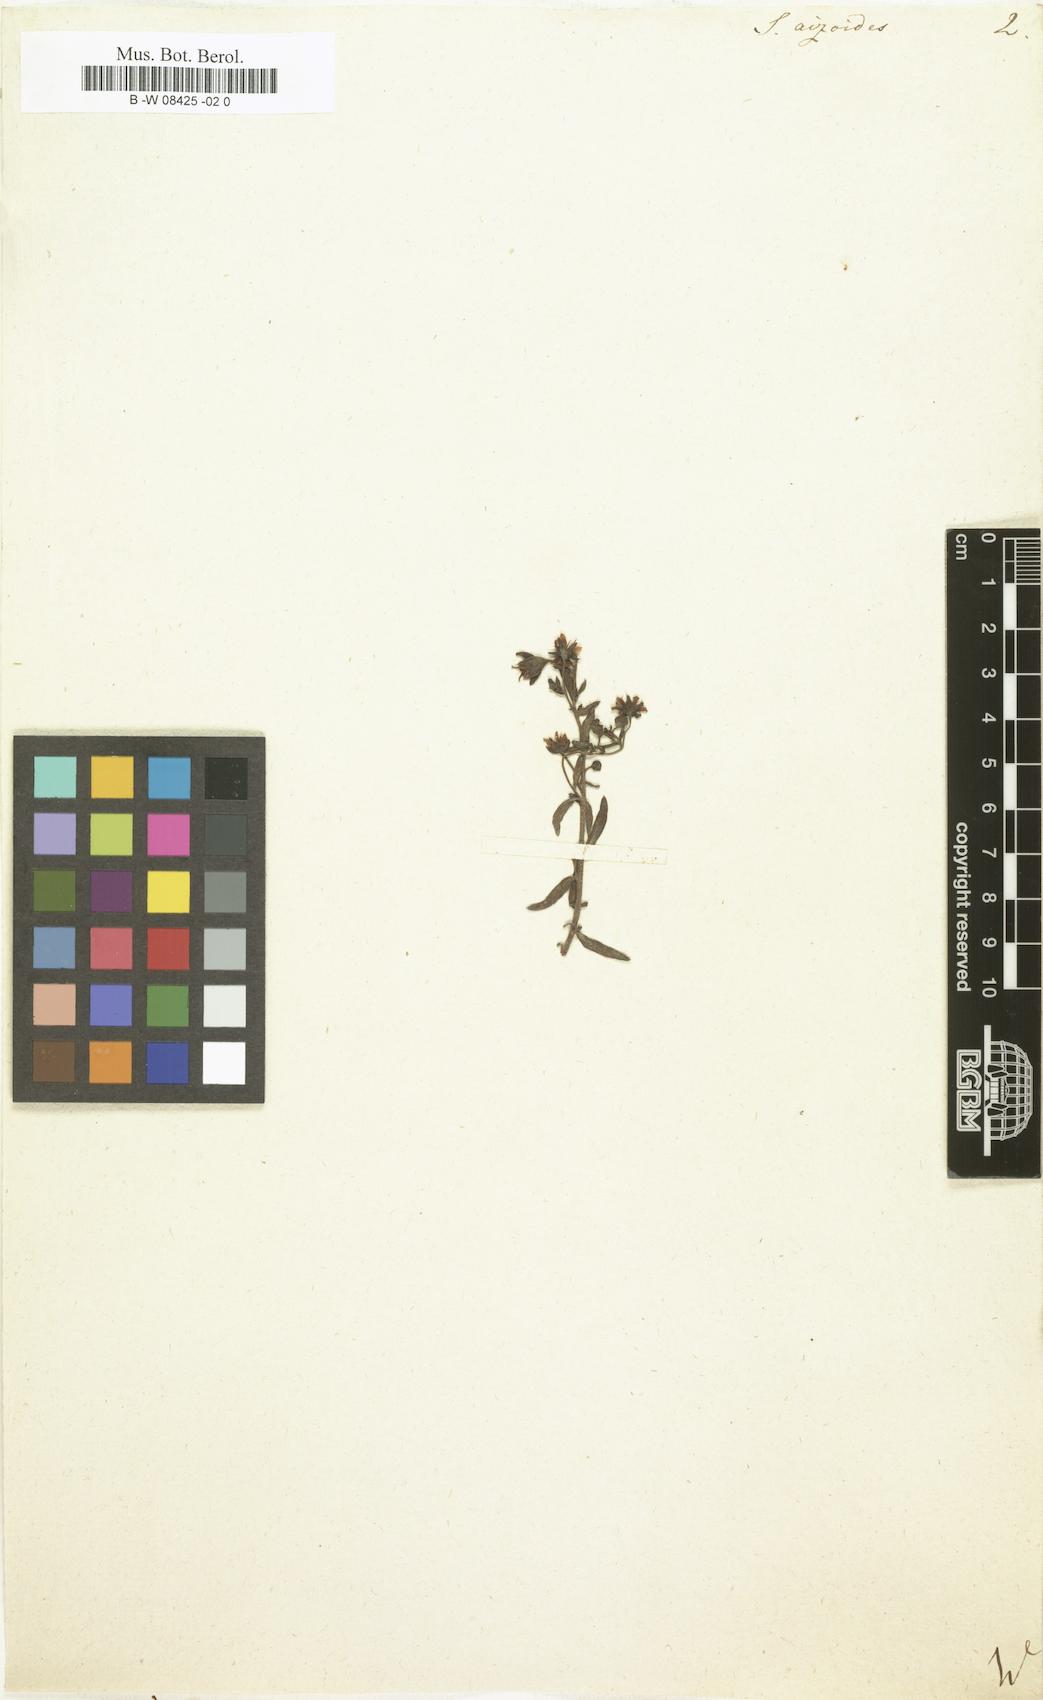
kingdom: Plantae
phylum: Tracheophyta
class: Magnoliopsida
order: Saxifragales
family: Saxifragaceae
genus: Saxifraga
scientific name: Saxifraga aizoides
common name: Yellow mountain saxifrage
